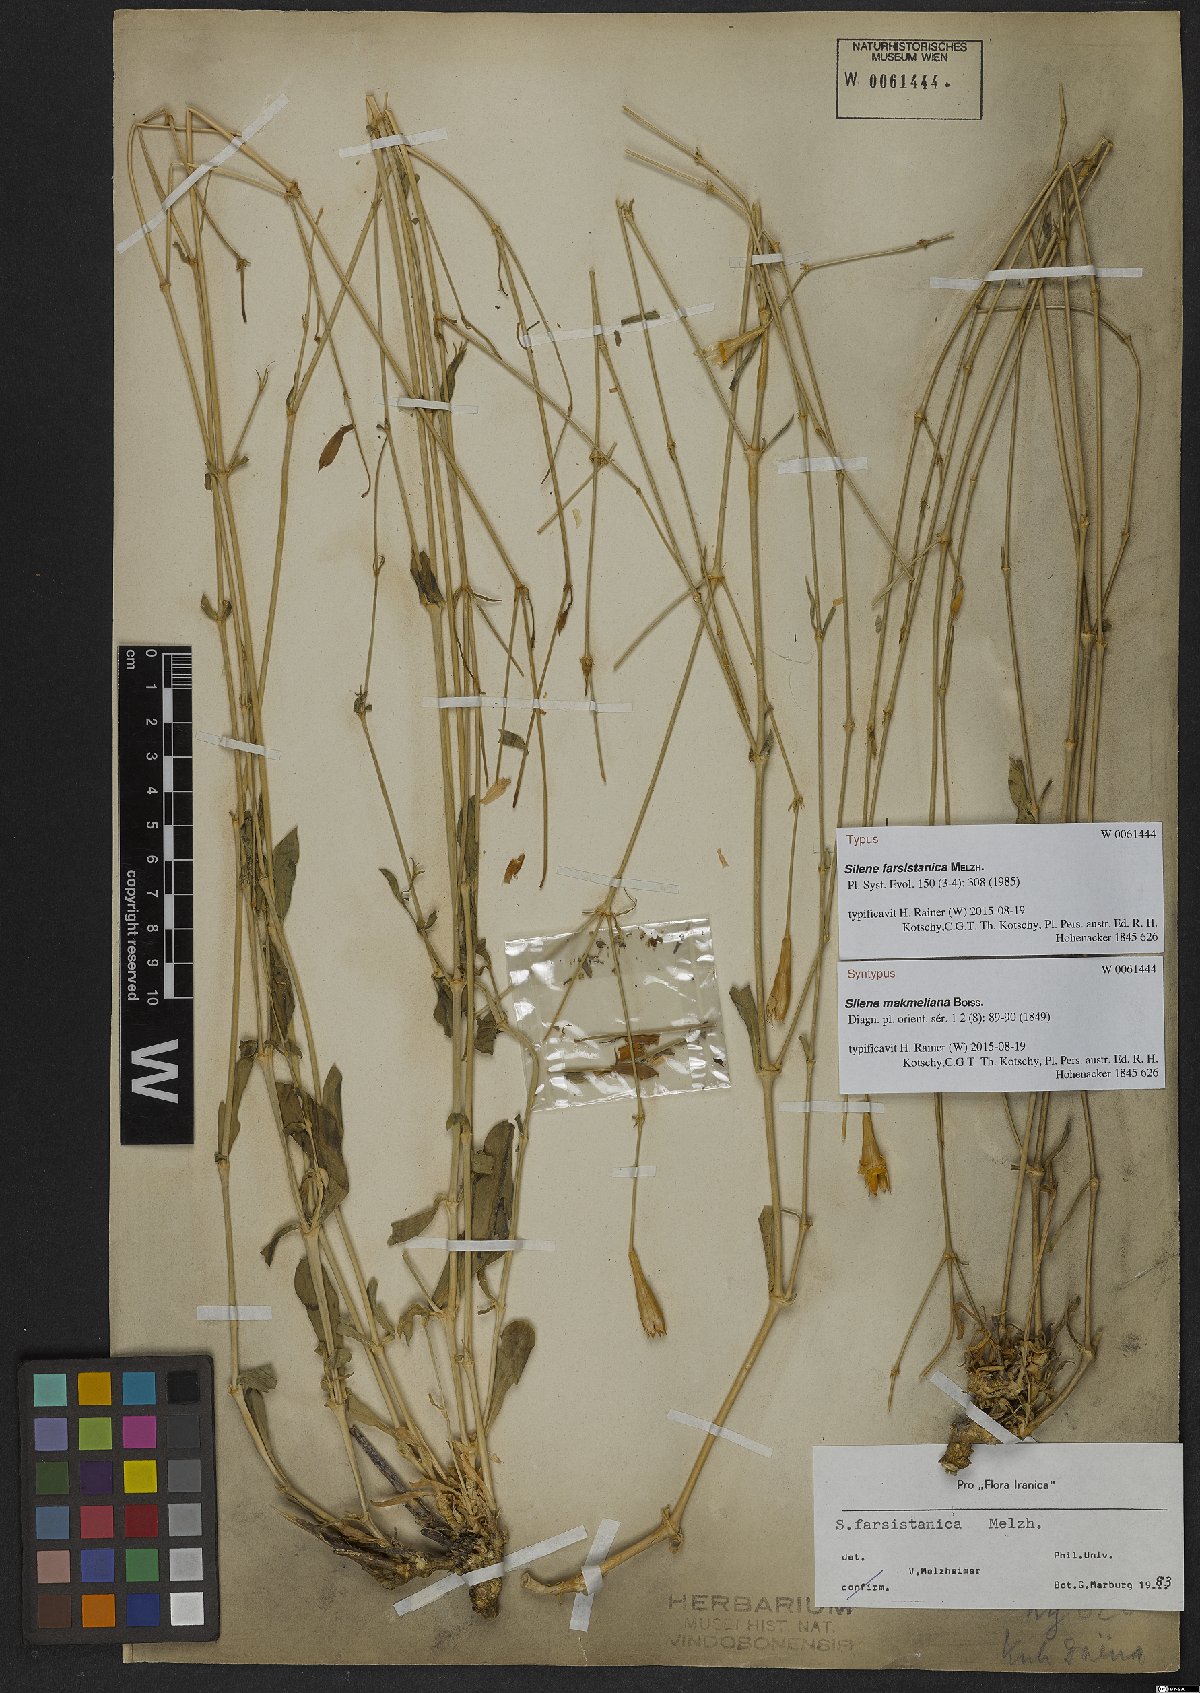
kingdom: Plantae
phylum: Tracheophyta
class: Magnoliopsida
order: Caryophyllales
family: Caryophyllaceae
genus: Silene
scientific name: Silene farsistanica
